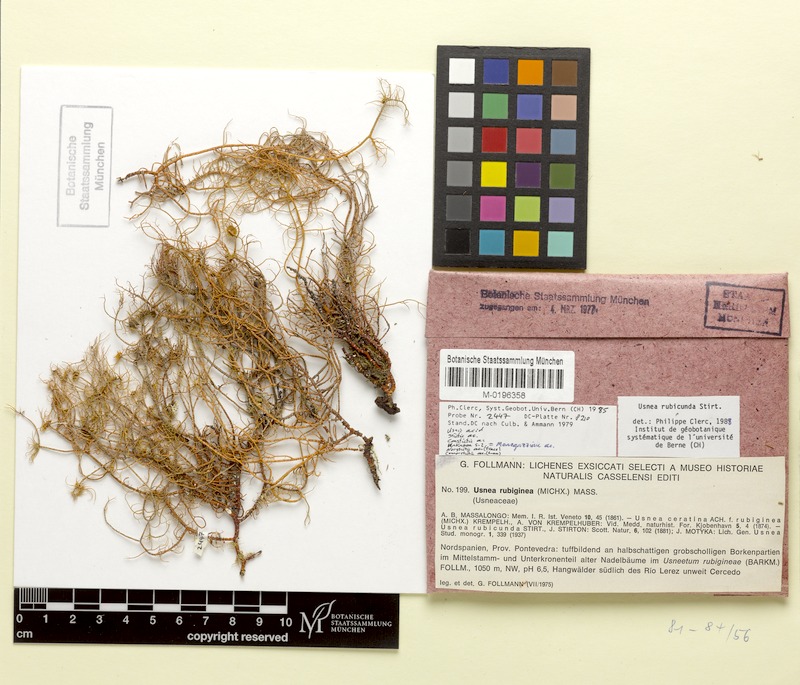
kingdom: Fungi
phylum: Ascomycota
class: Lecanoromycetes
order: Lecanorales
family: Parmeliaceae
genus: Usnea
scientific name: Usnea rubicunda
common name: Red beard lichen
